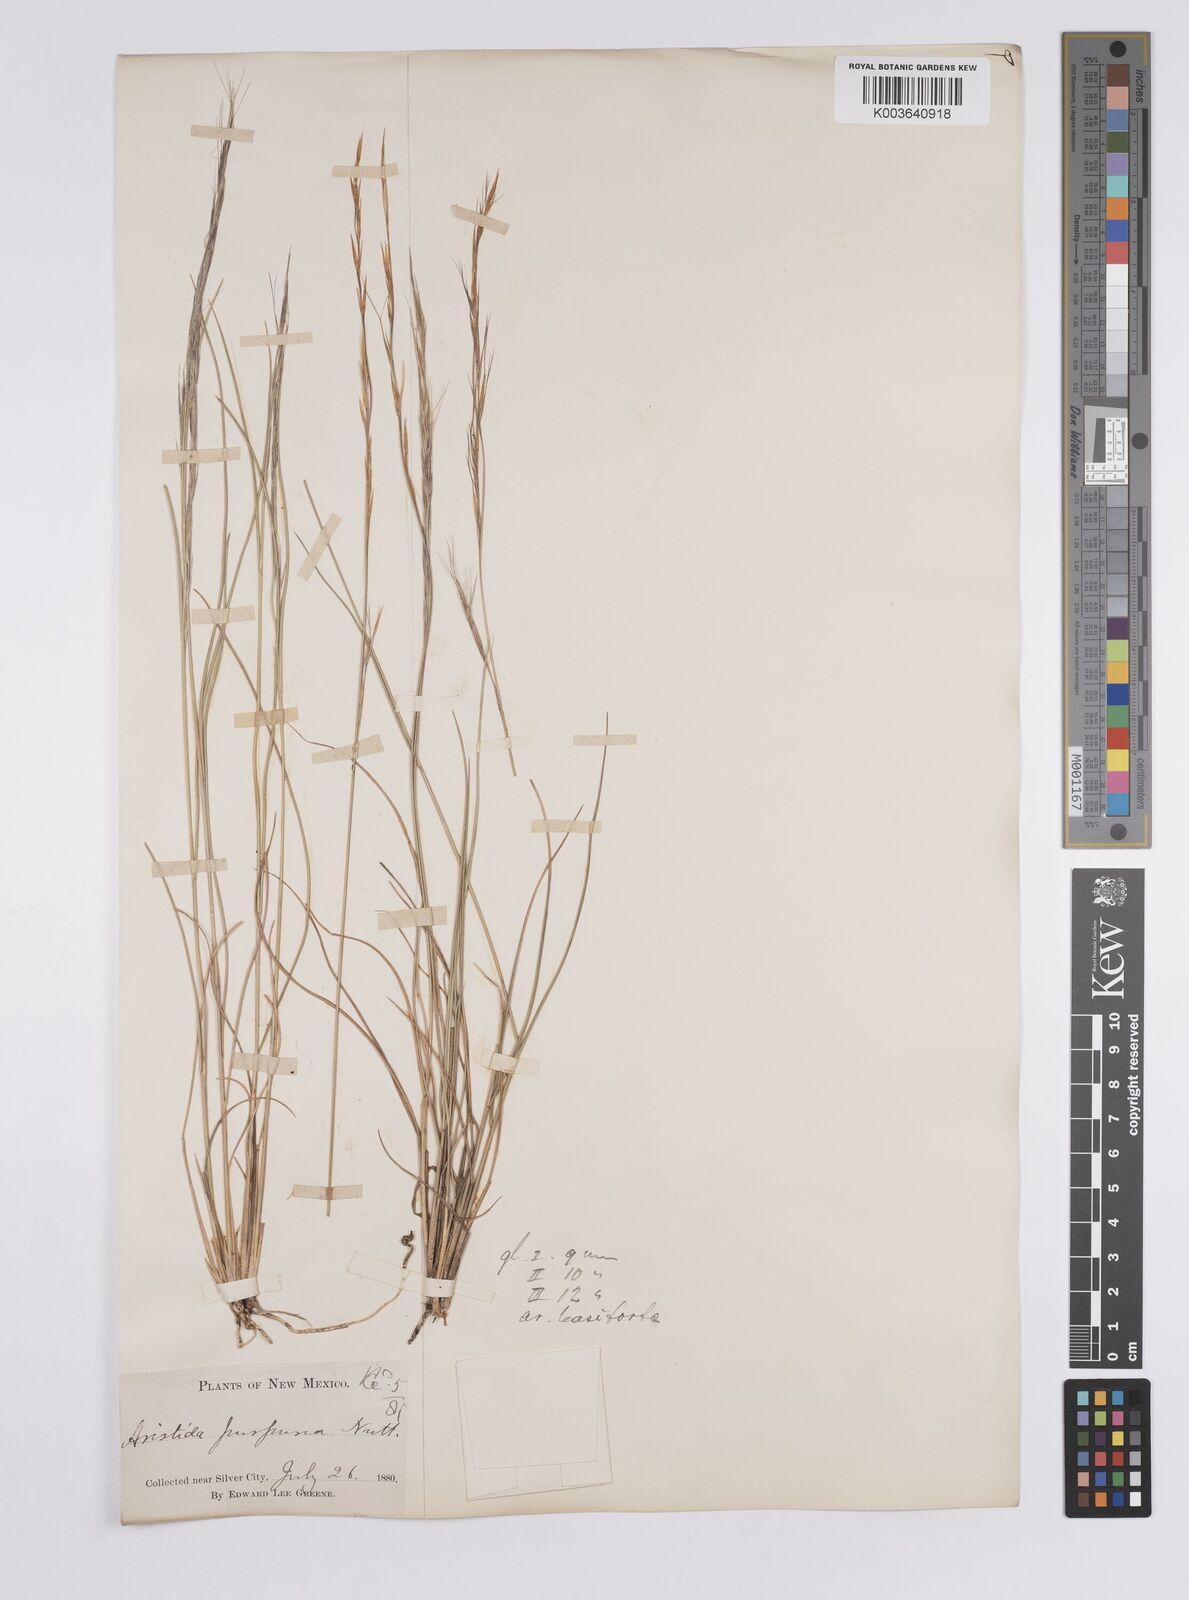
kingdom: Plantae
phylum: Tracheophyta
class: Liliopsida
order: Poales
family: Poaceae
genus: Aristida
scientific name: Aristida purpurea
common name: Purple threeawn
